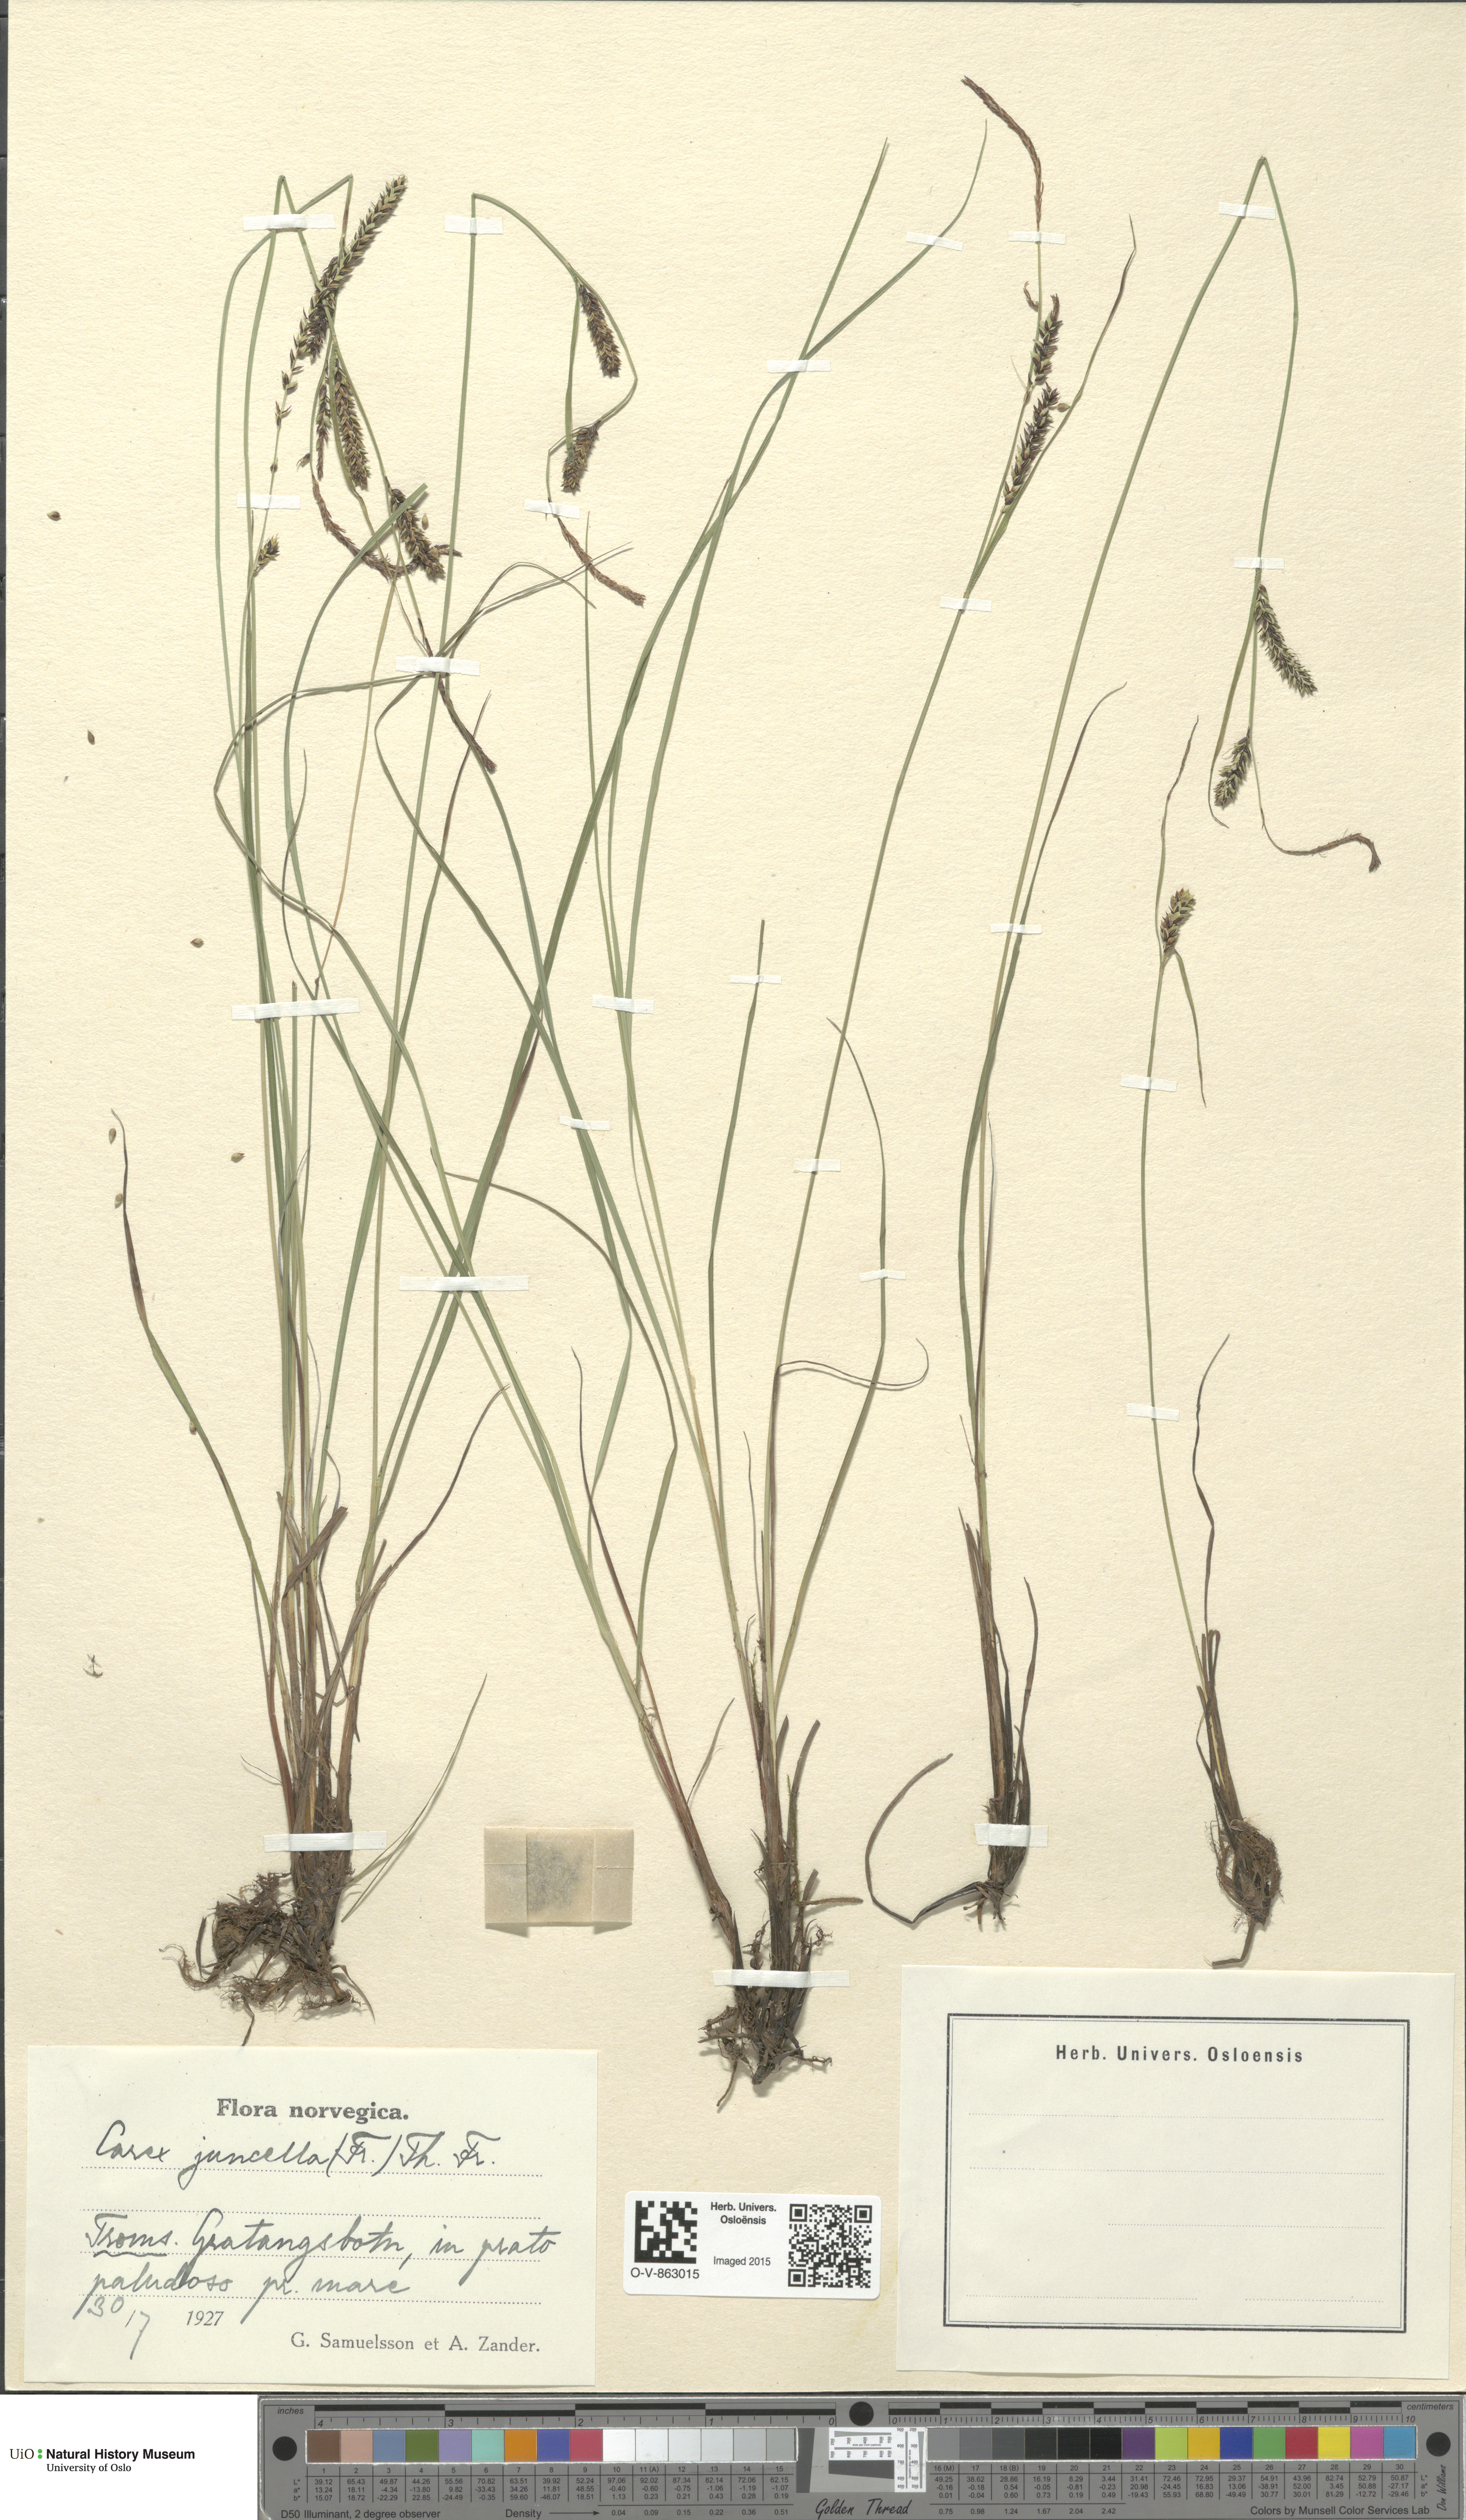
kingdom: Plantae
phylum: Tracheophyta
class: Liliopsida
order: Poales
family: Cyperaceae
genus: Carex
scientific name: Carex nigra
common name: Common sedge
